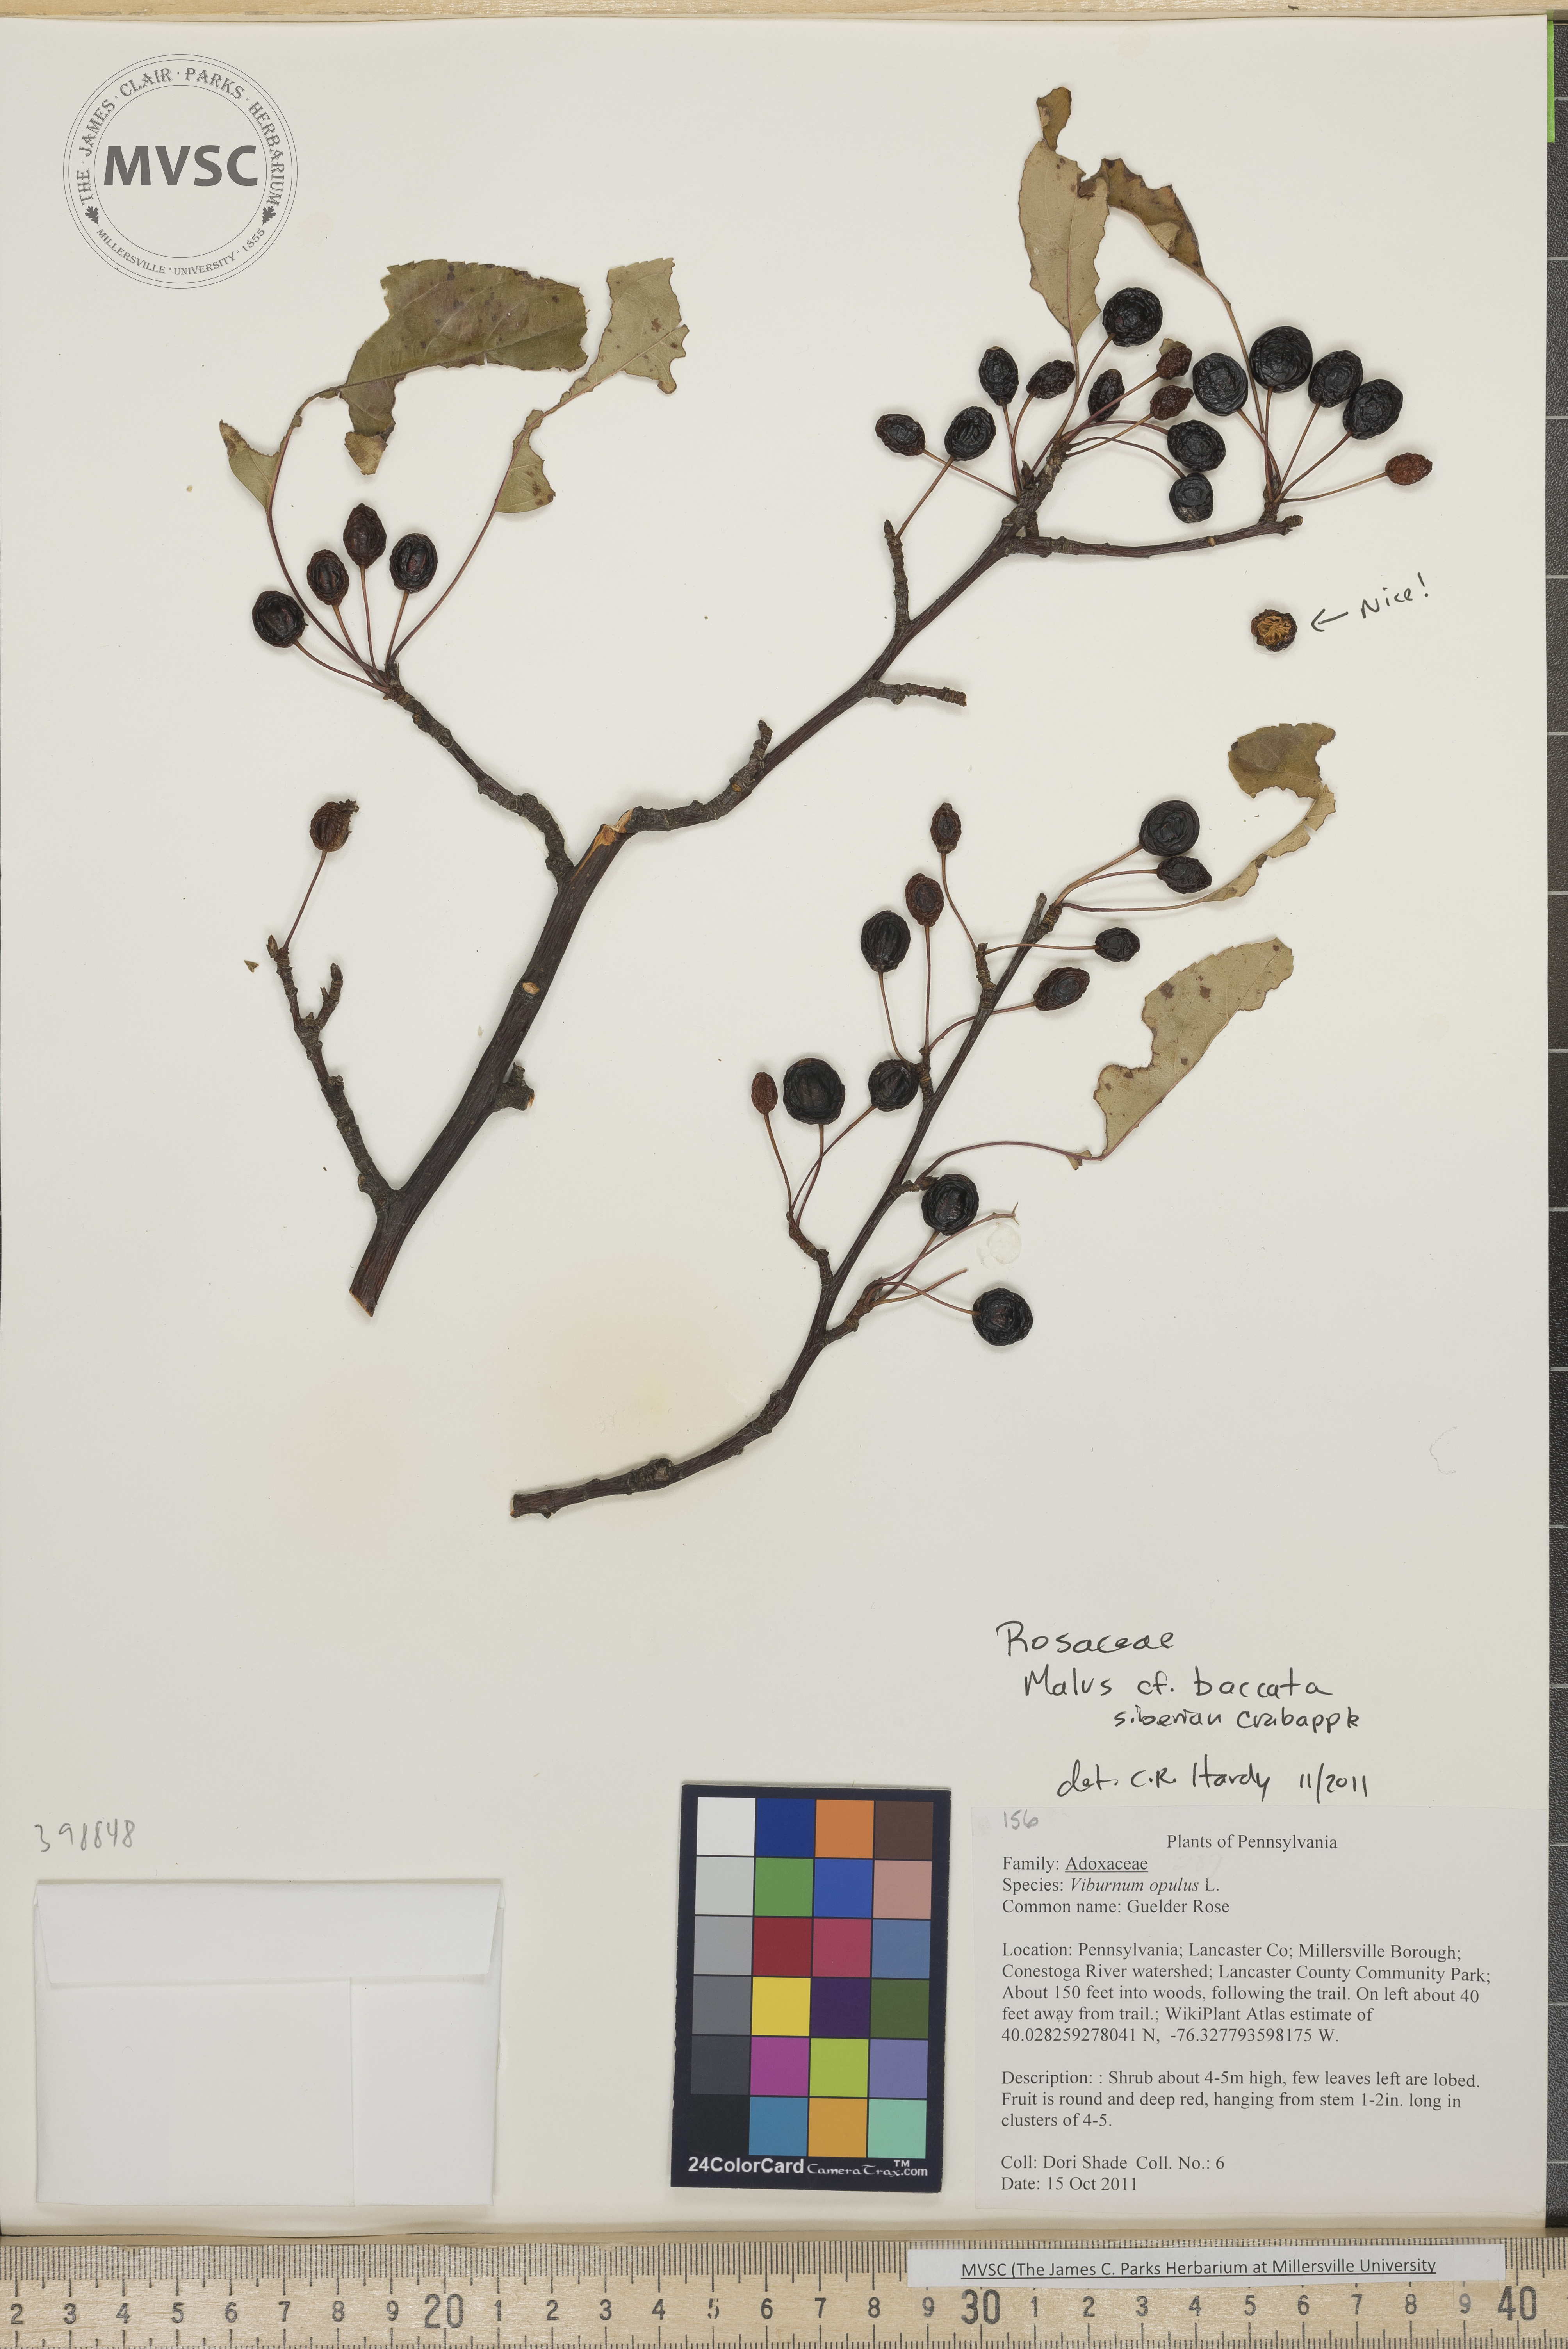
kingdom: Plantae
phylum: Tracheophyta
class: Magnoliopsida
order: Rosales
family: Rosaceae
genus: Malus
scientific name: Malus baccata
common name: Siberian crabapple
